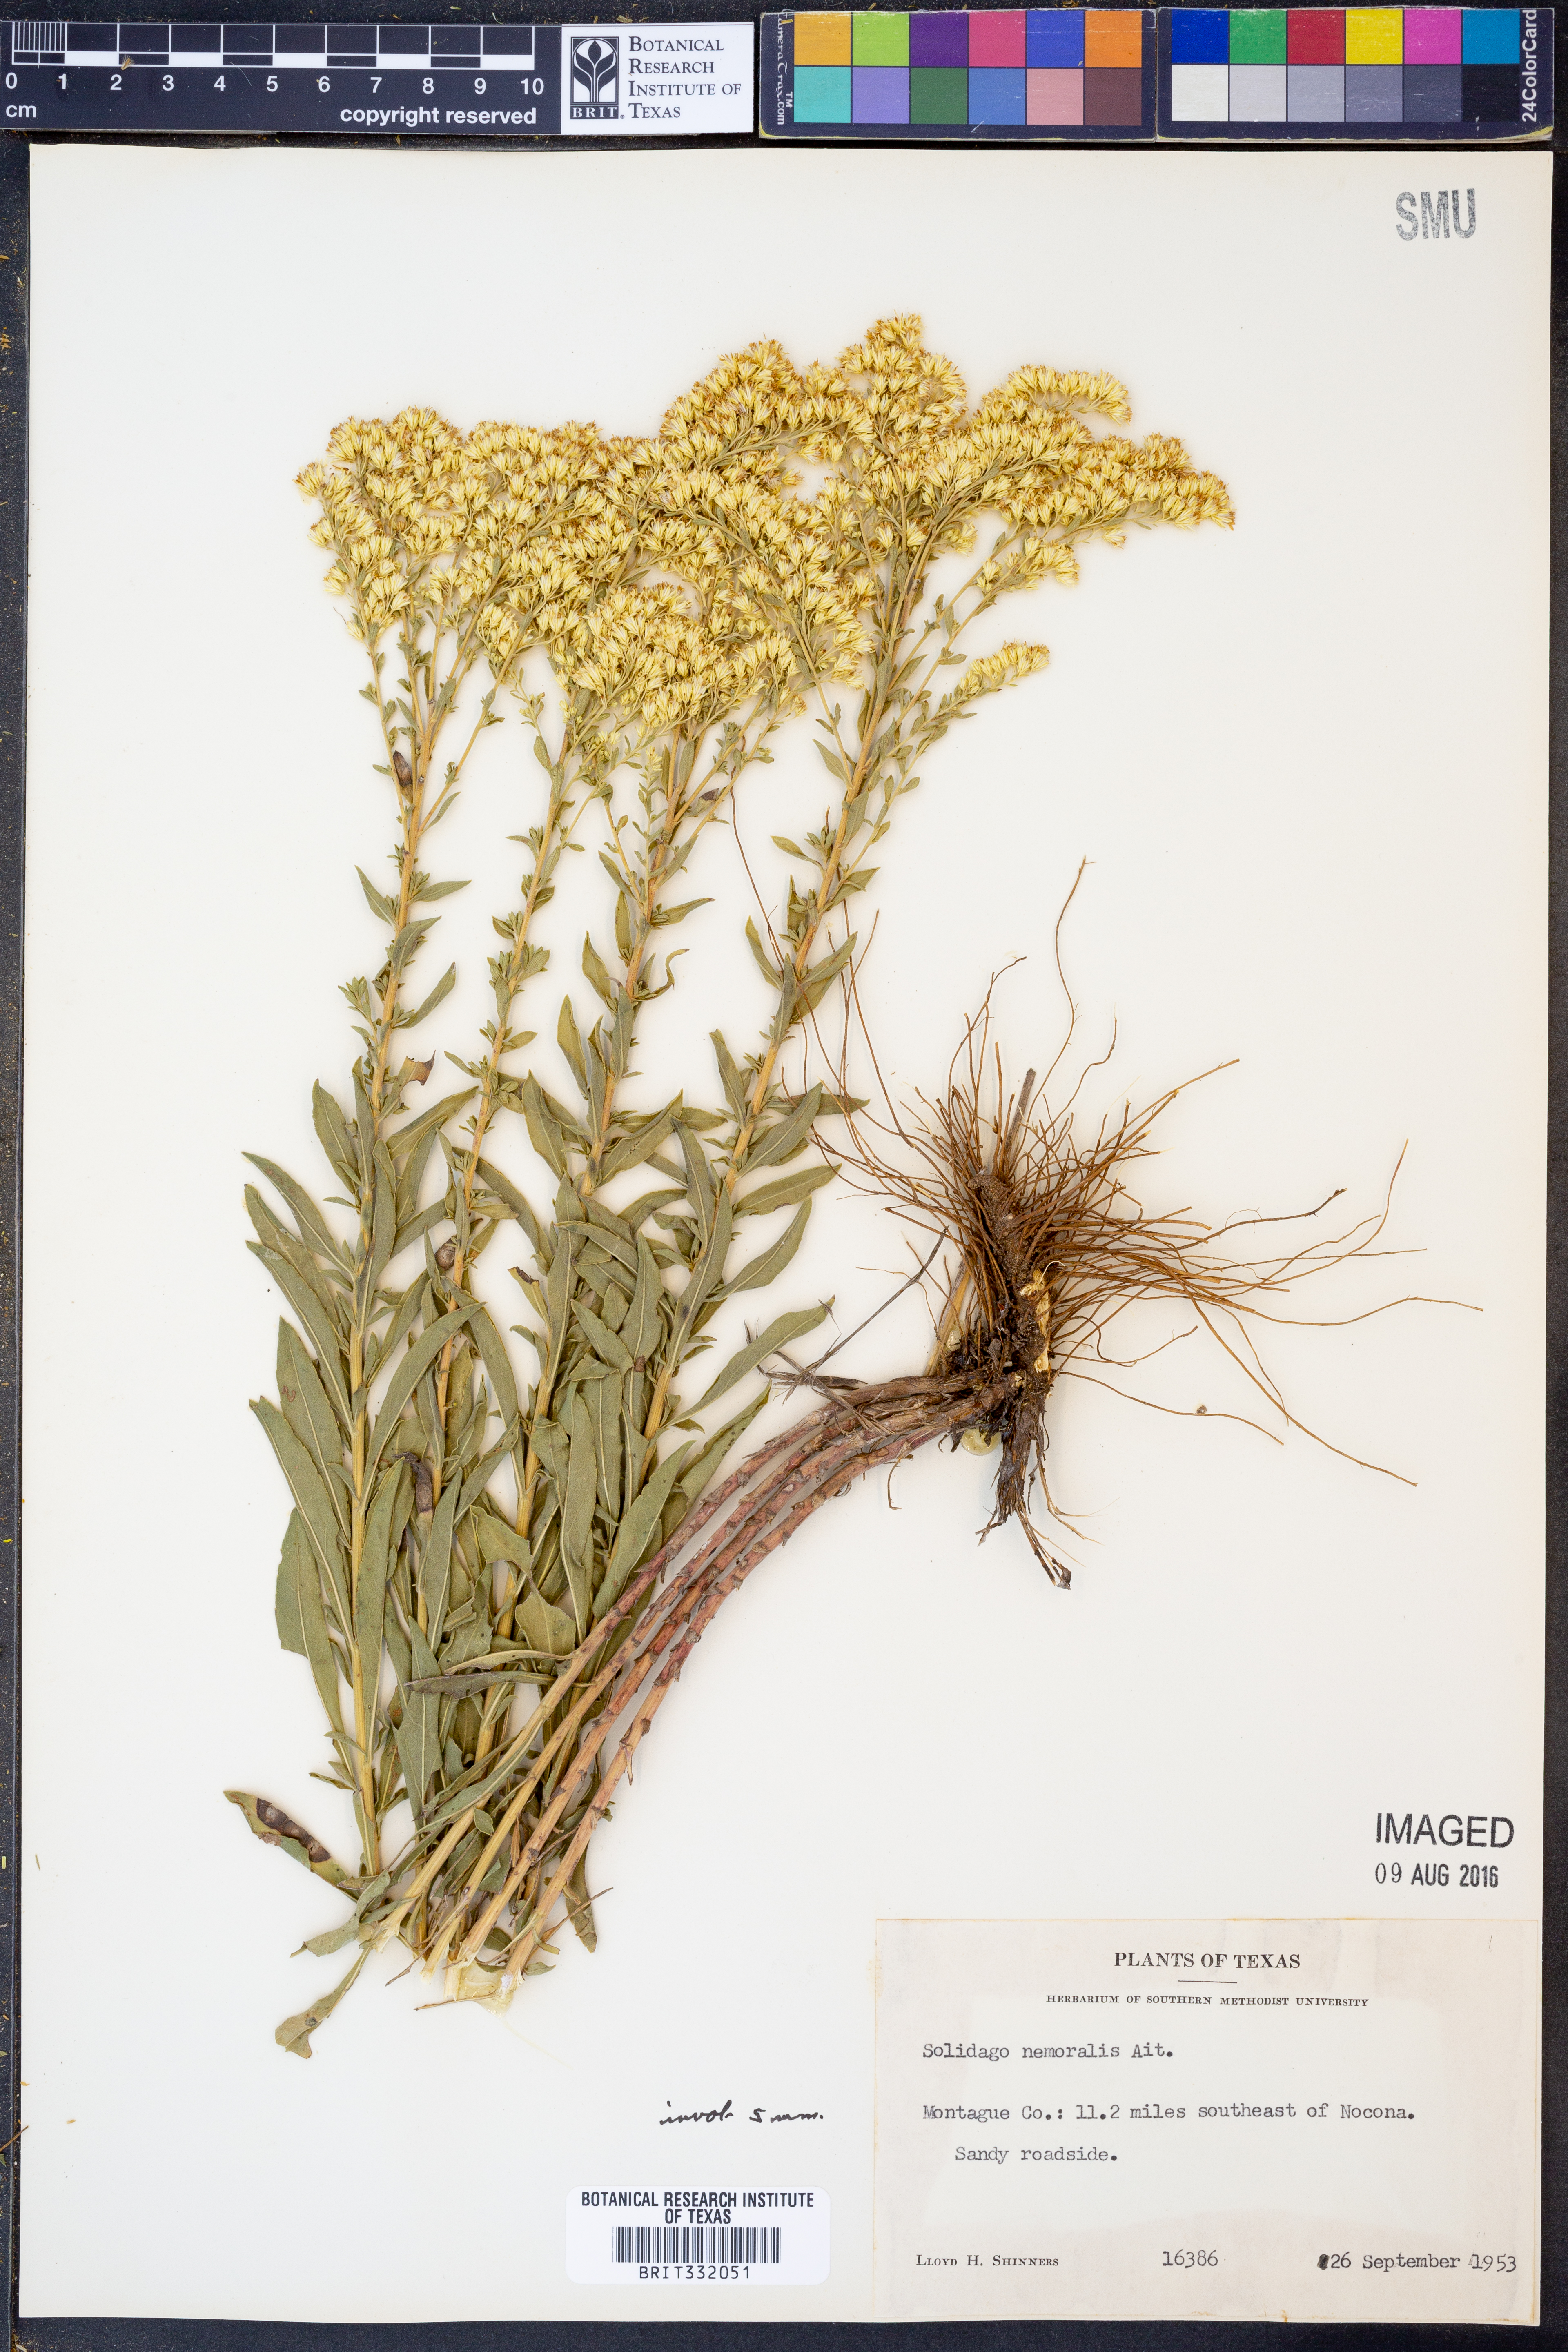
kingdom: Plantae
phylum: Tracheophyta
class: Magnoliopsida
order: Asterales
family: Asteraceae
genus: Solidago
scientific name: Solidago nemoralis
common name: Grey goldenrod
